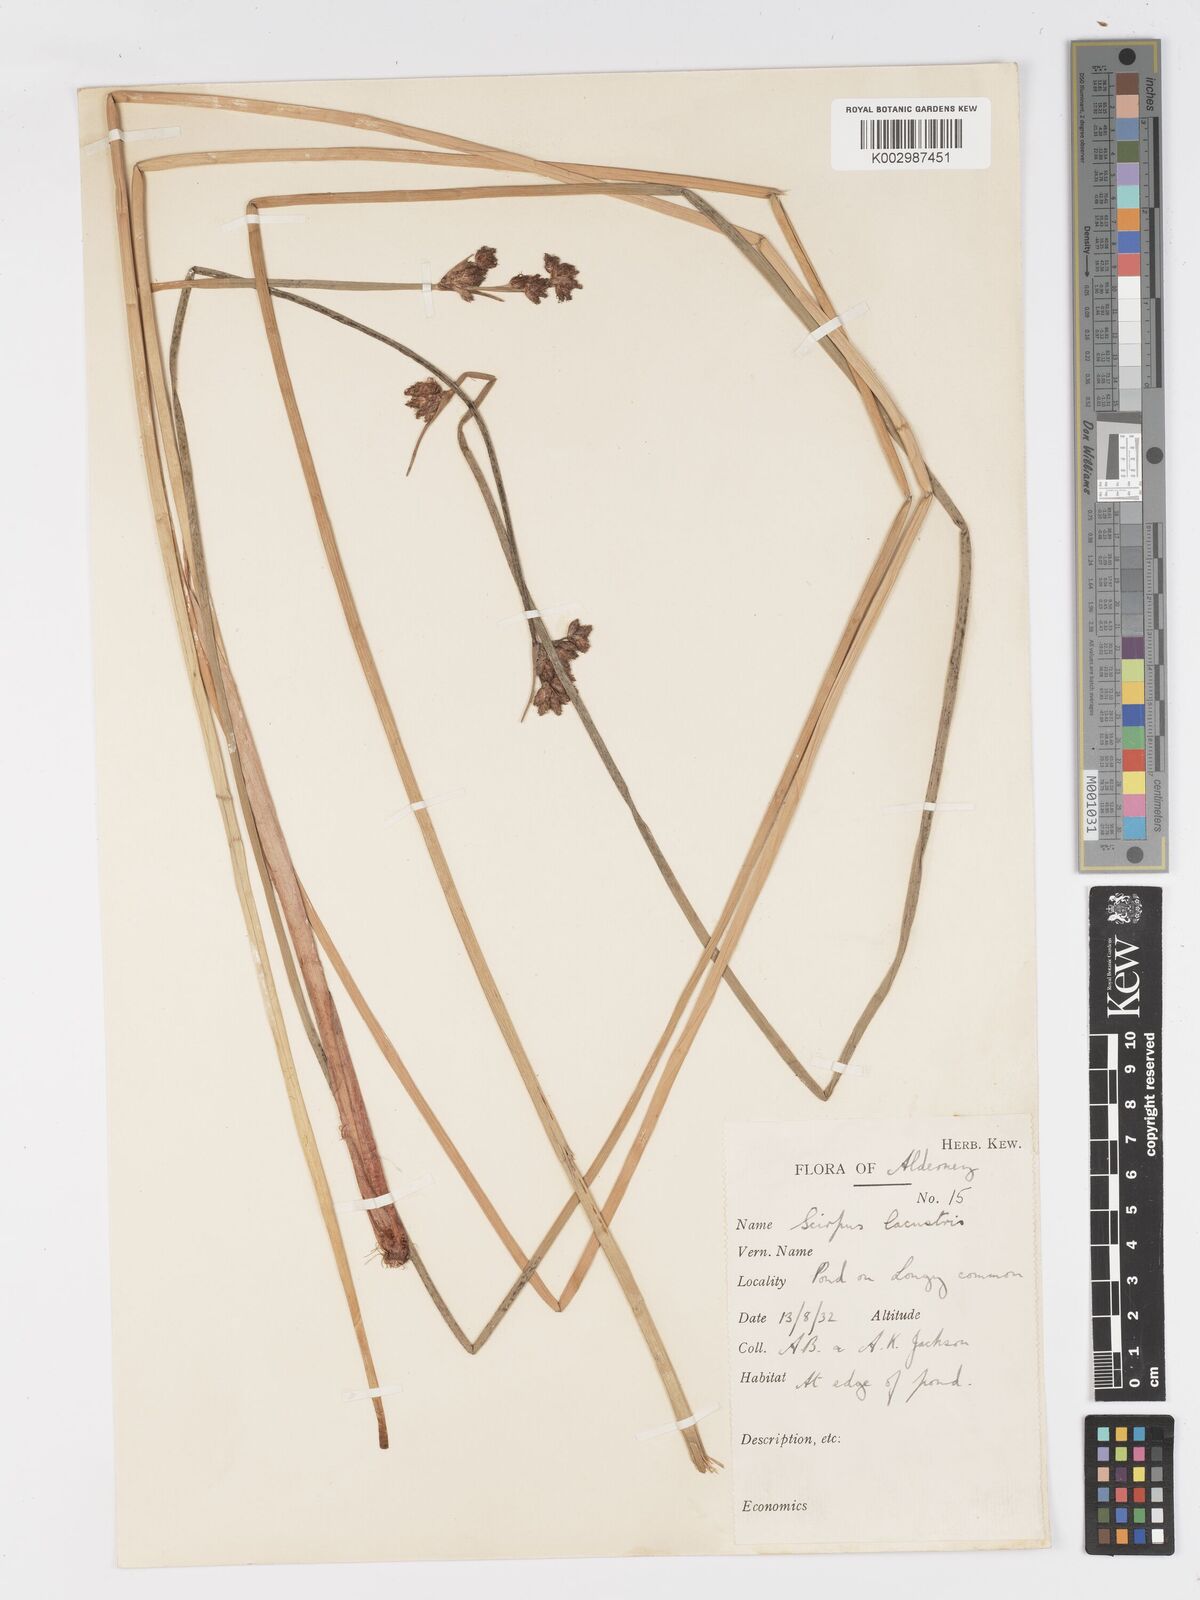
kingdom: Plantae
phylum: Tracheophyta
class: Liliopsida
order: Poales
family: Cyperaceae
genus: Schoenoplectus
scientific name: Schoenoplectus lacustris
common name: Common club-rush
